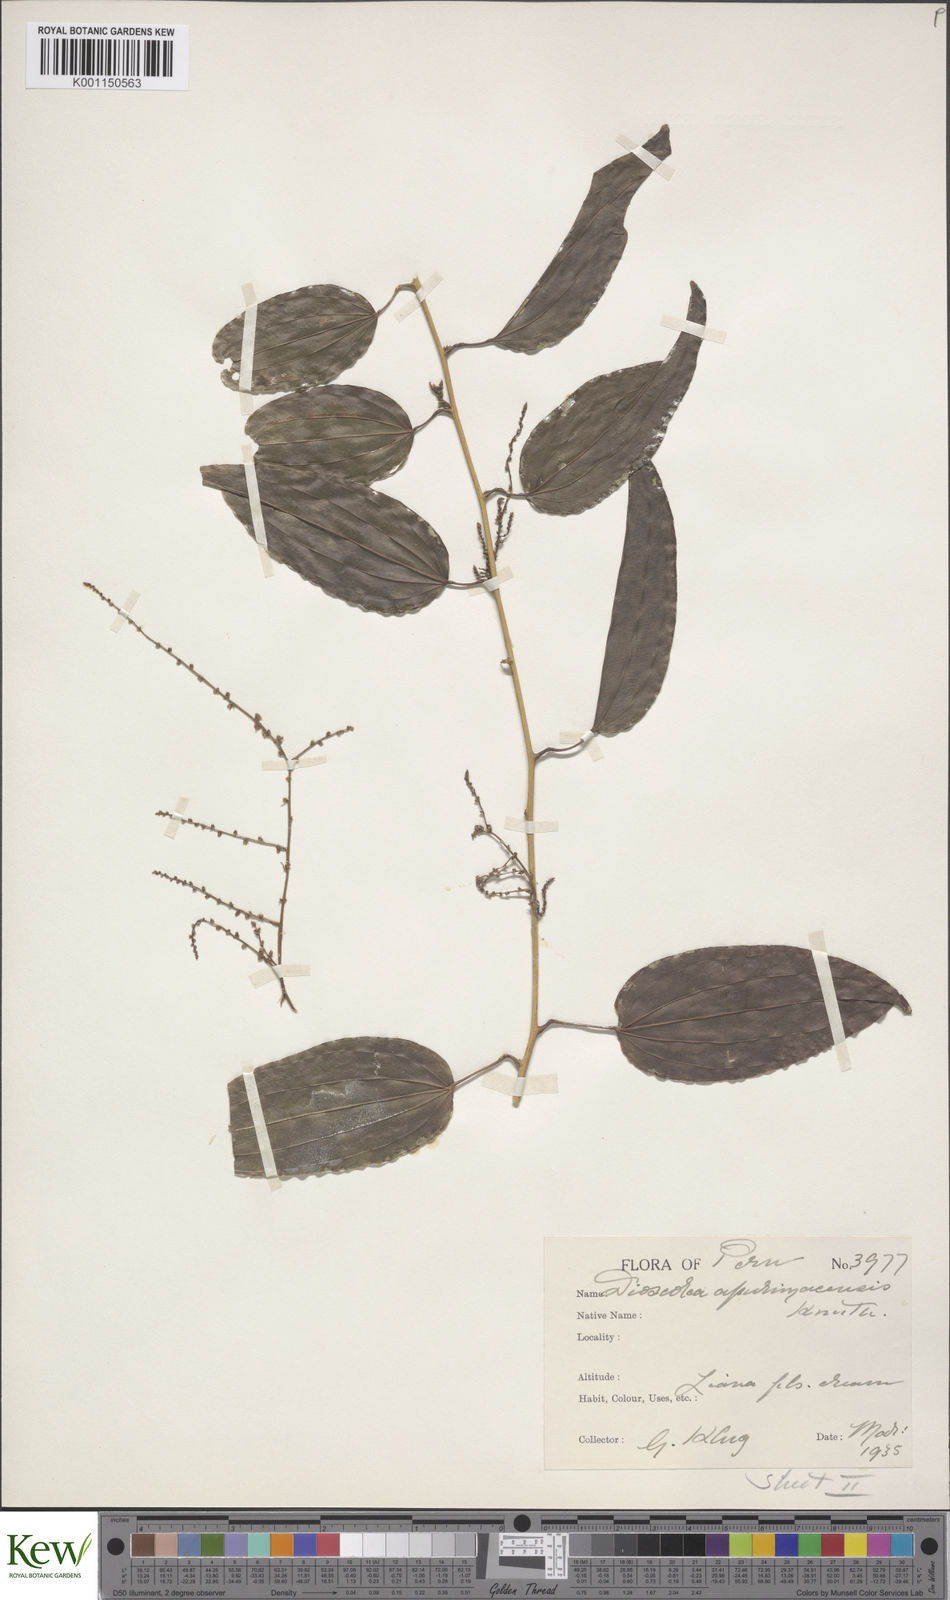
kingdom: Plantae
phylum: Tracheophyta
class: Liliopsida
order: Dioscoreales
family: Dioscoreaceae
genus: Dioscorea
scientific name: Dioscorea acanthogene
